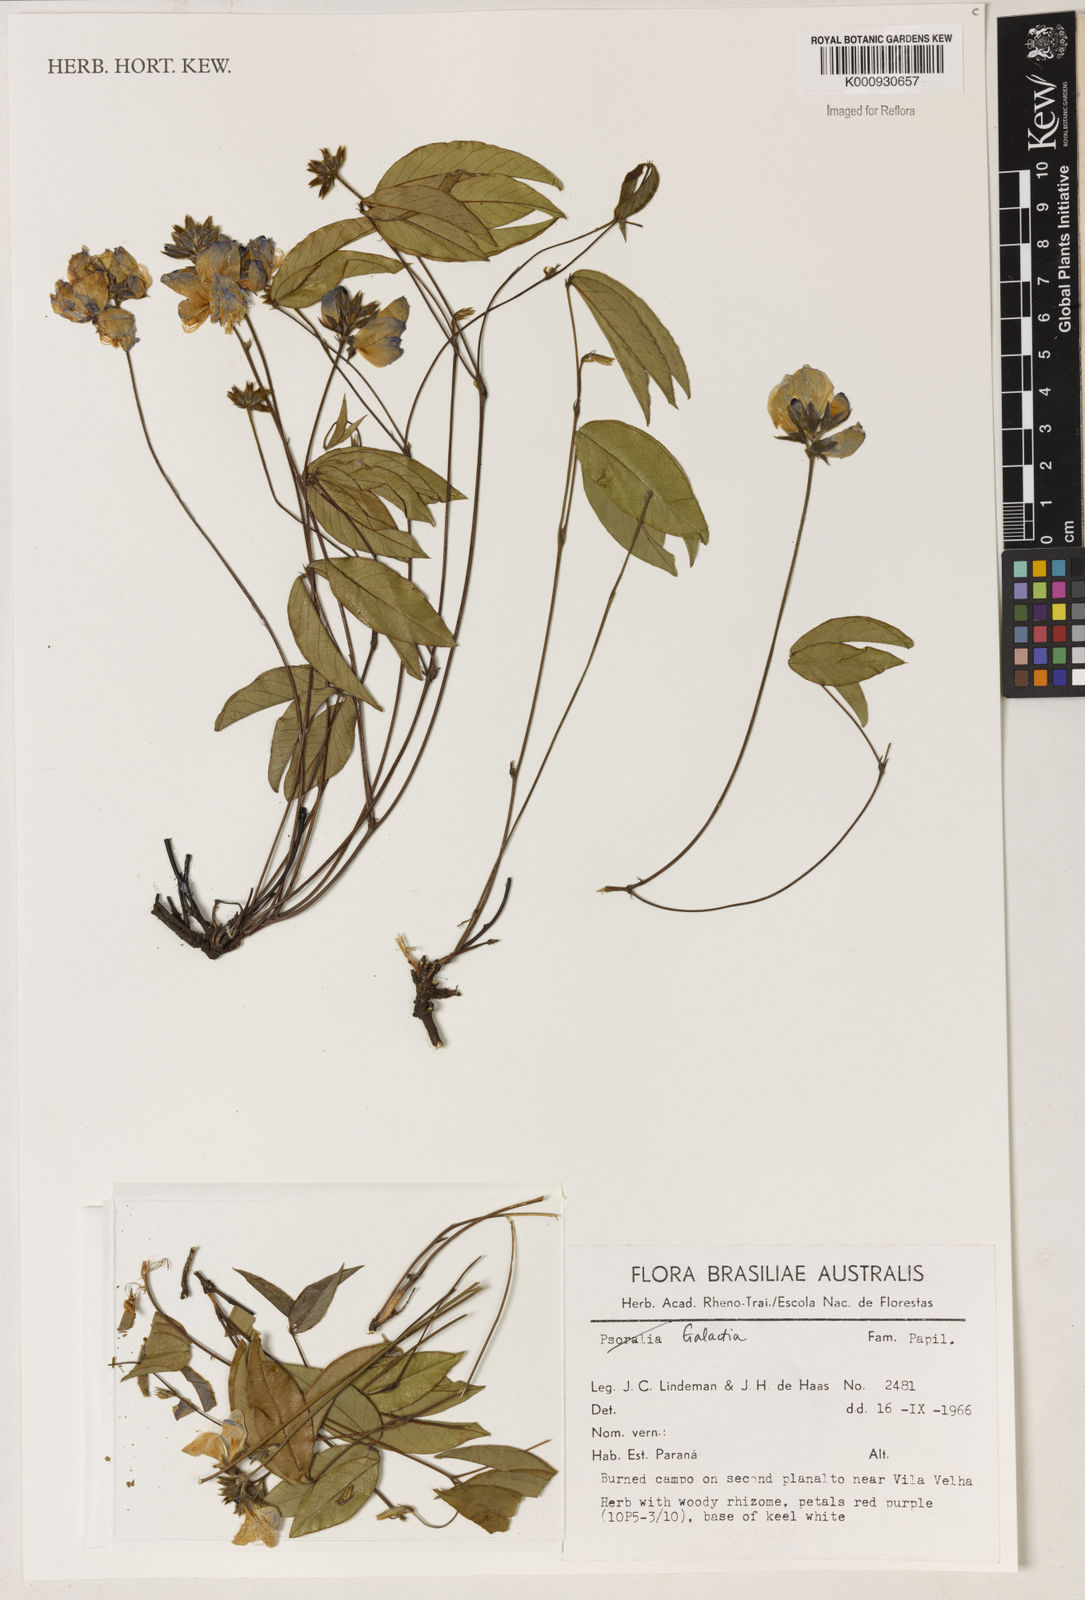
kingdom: Plantae
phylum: Tracheophyta
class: Magnoliopsida
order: Fabales
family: Fabaceae
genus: Galactia
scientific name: Galactia
